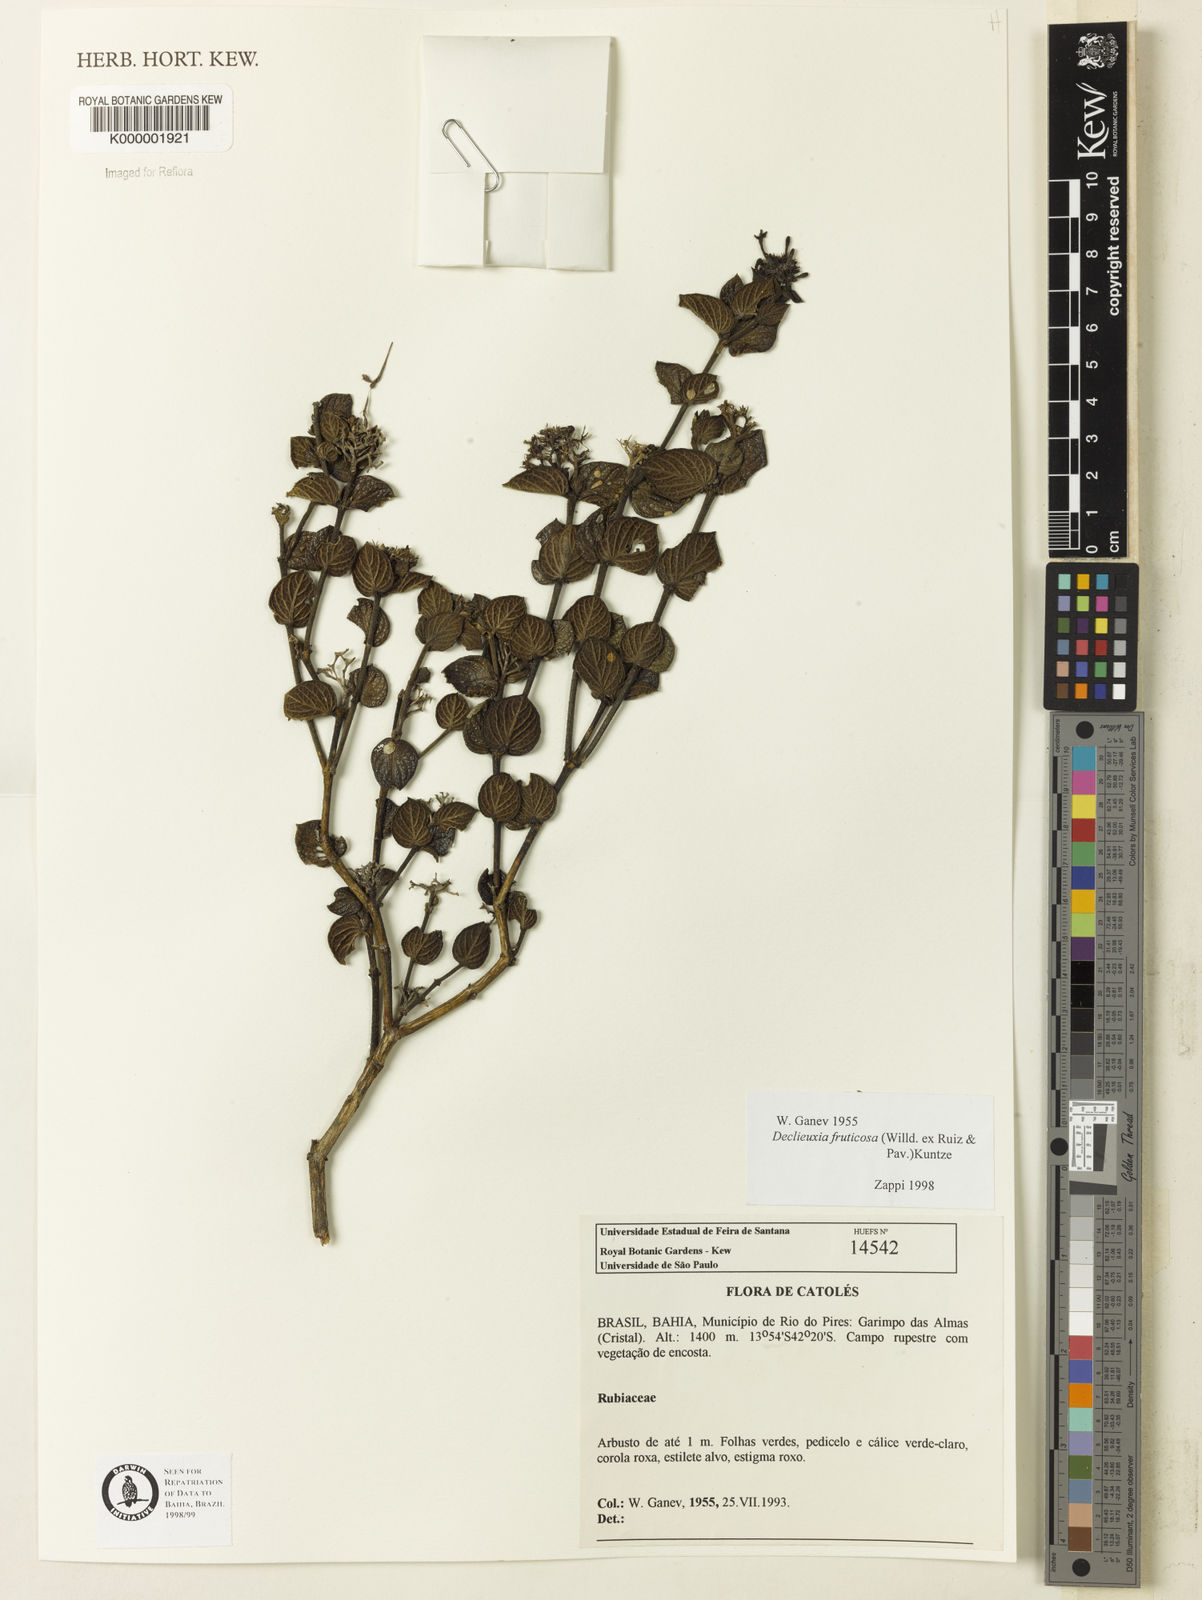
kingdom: Plantae
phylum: Tracheophyta
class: Magnoliopsida
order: Gentianales
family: Rubiaceae
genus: Declieuxia
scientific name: Declieuxia fruticosa
